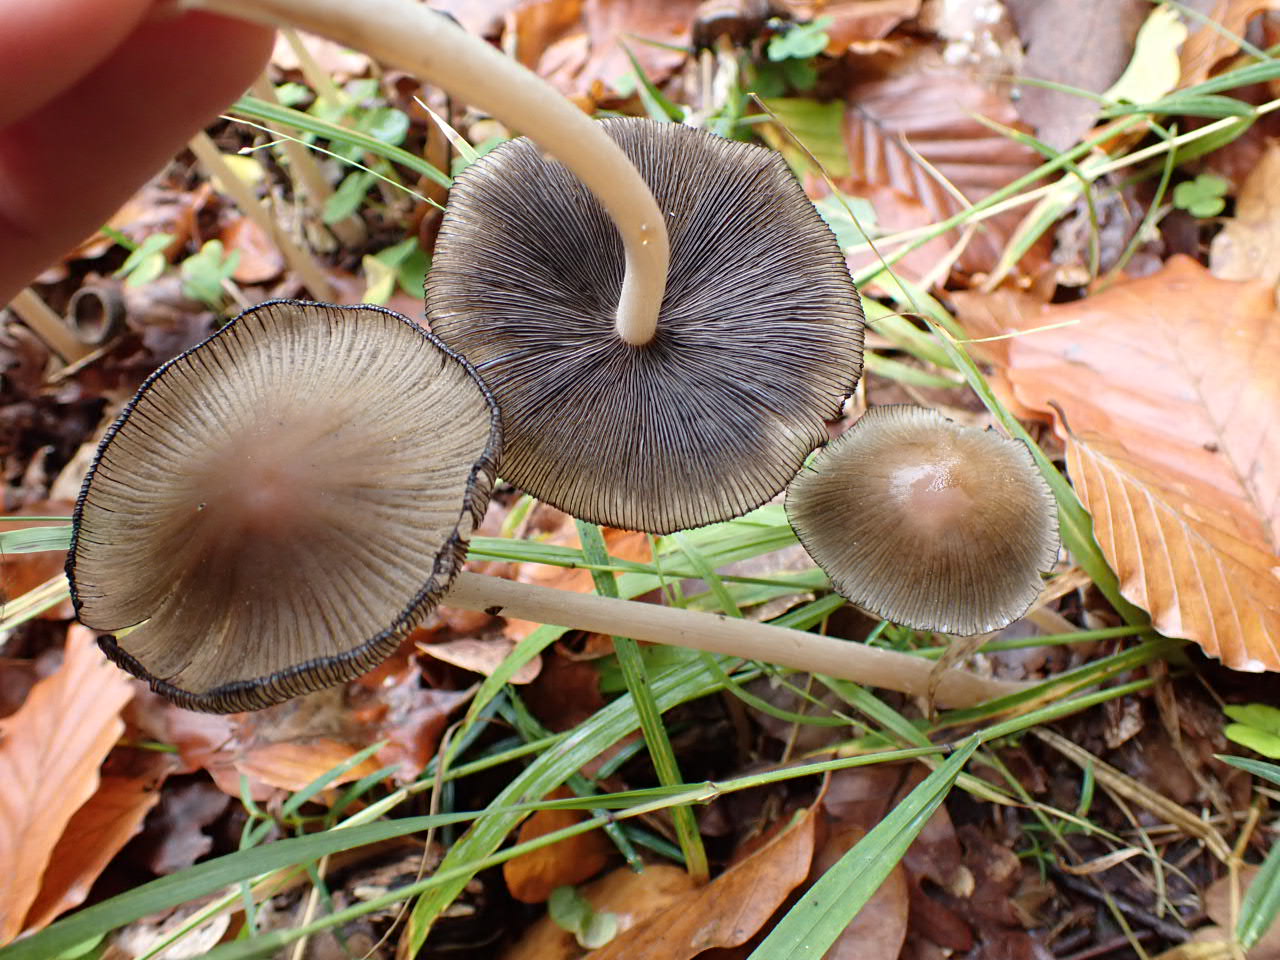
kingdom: Fungi
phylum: Basidiomycota
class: Agaricomycetes
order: Agaricales
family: Psathyrellaceae
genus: Coprinellus
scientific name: Coprinellus
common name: blækhat
